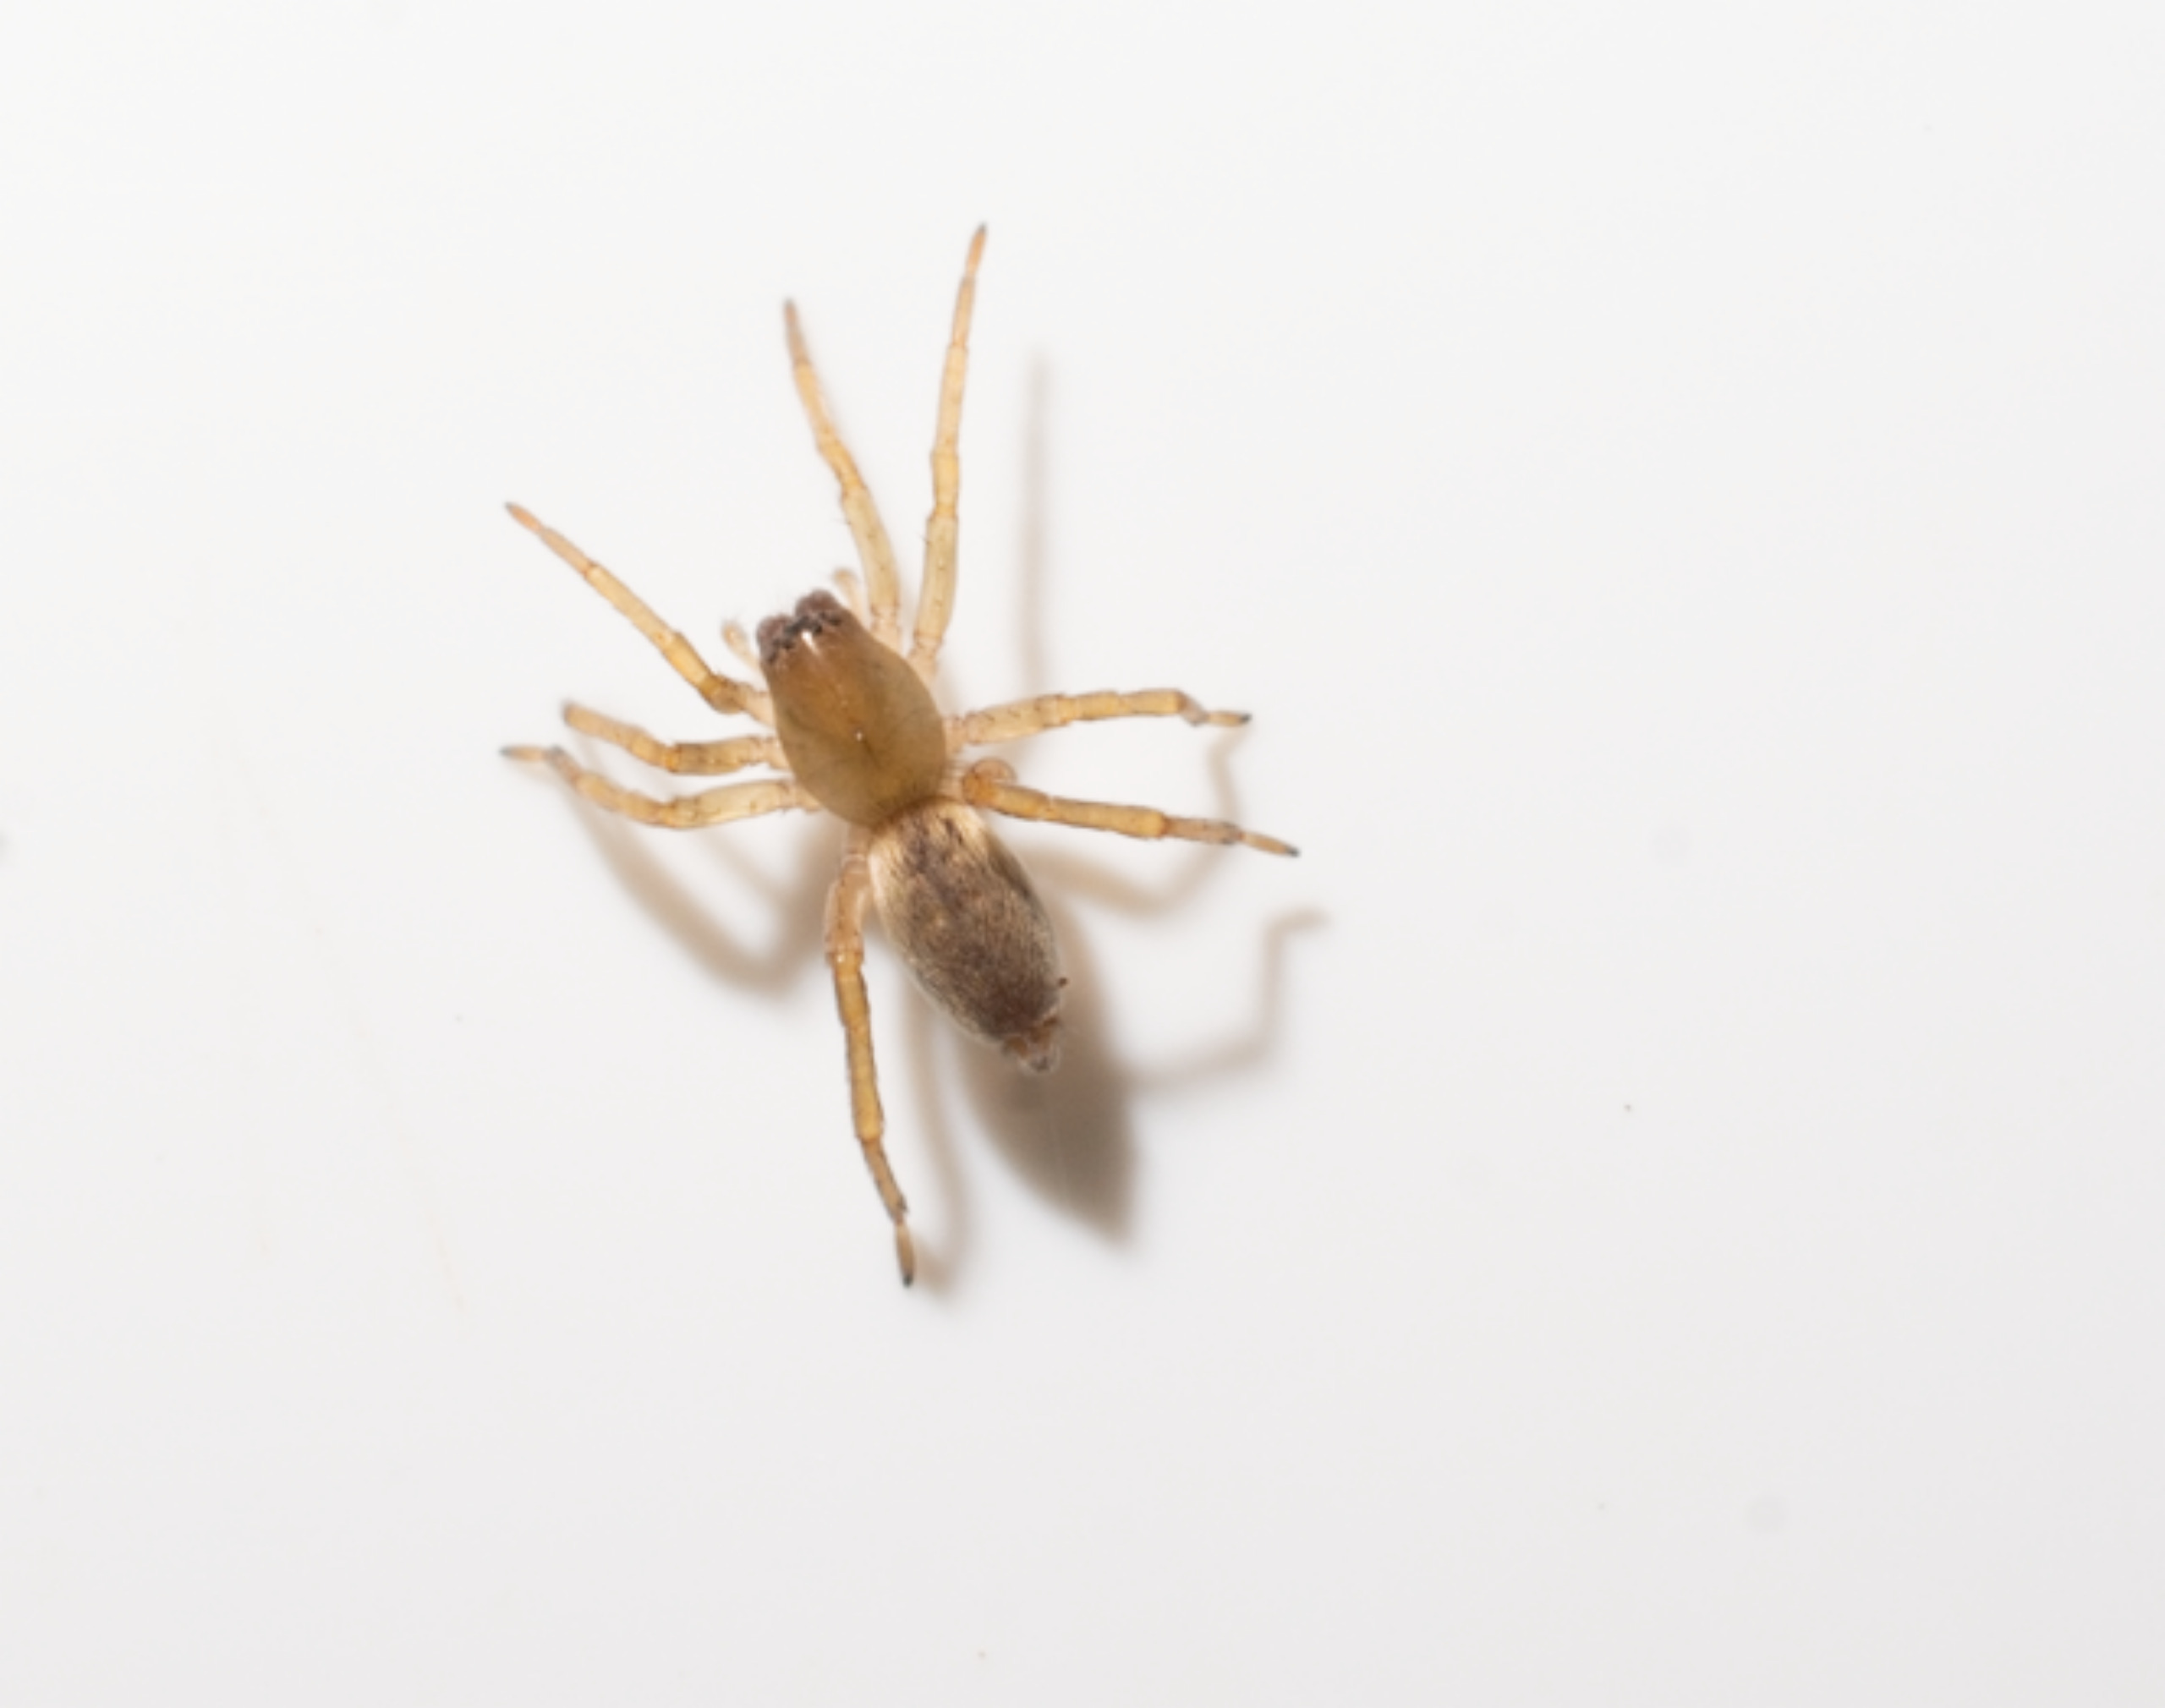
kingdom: Animalia
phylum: Arthropoda
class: Arachnida
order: Araneae
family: Clubionidae
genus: Clubiona
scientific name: Clubiona
